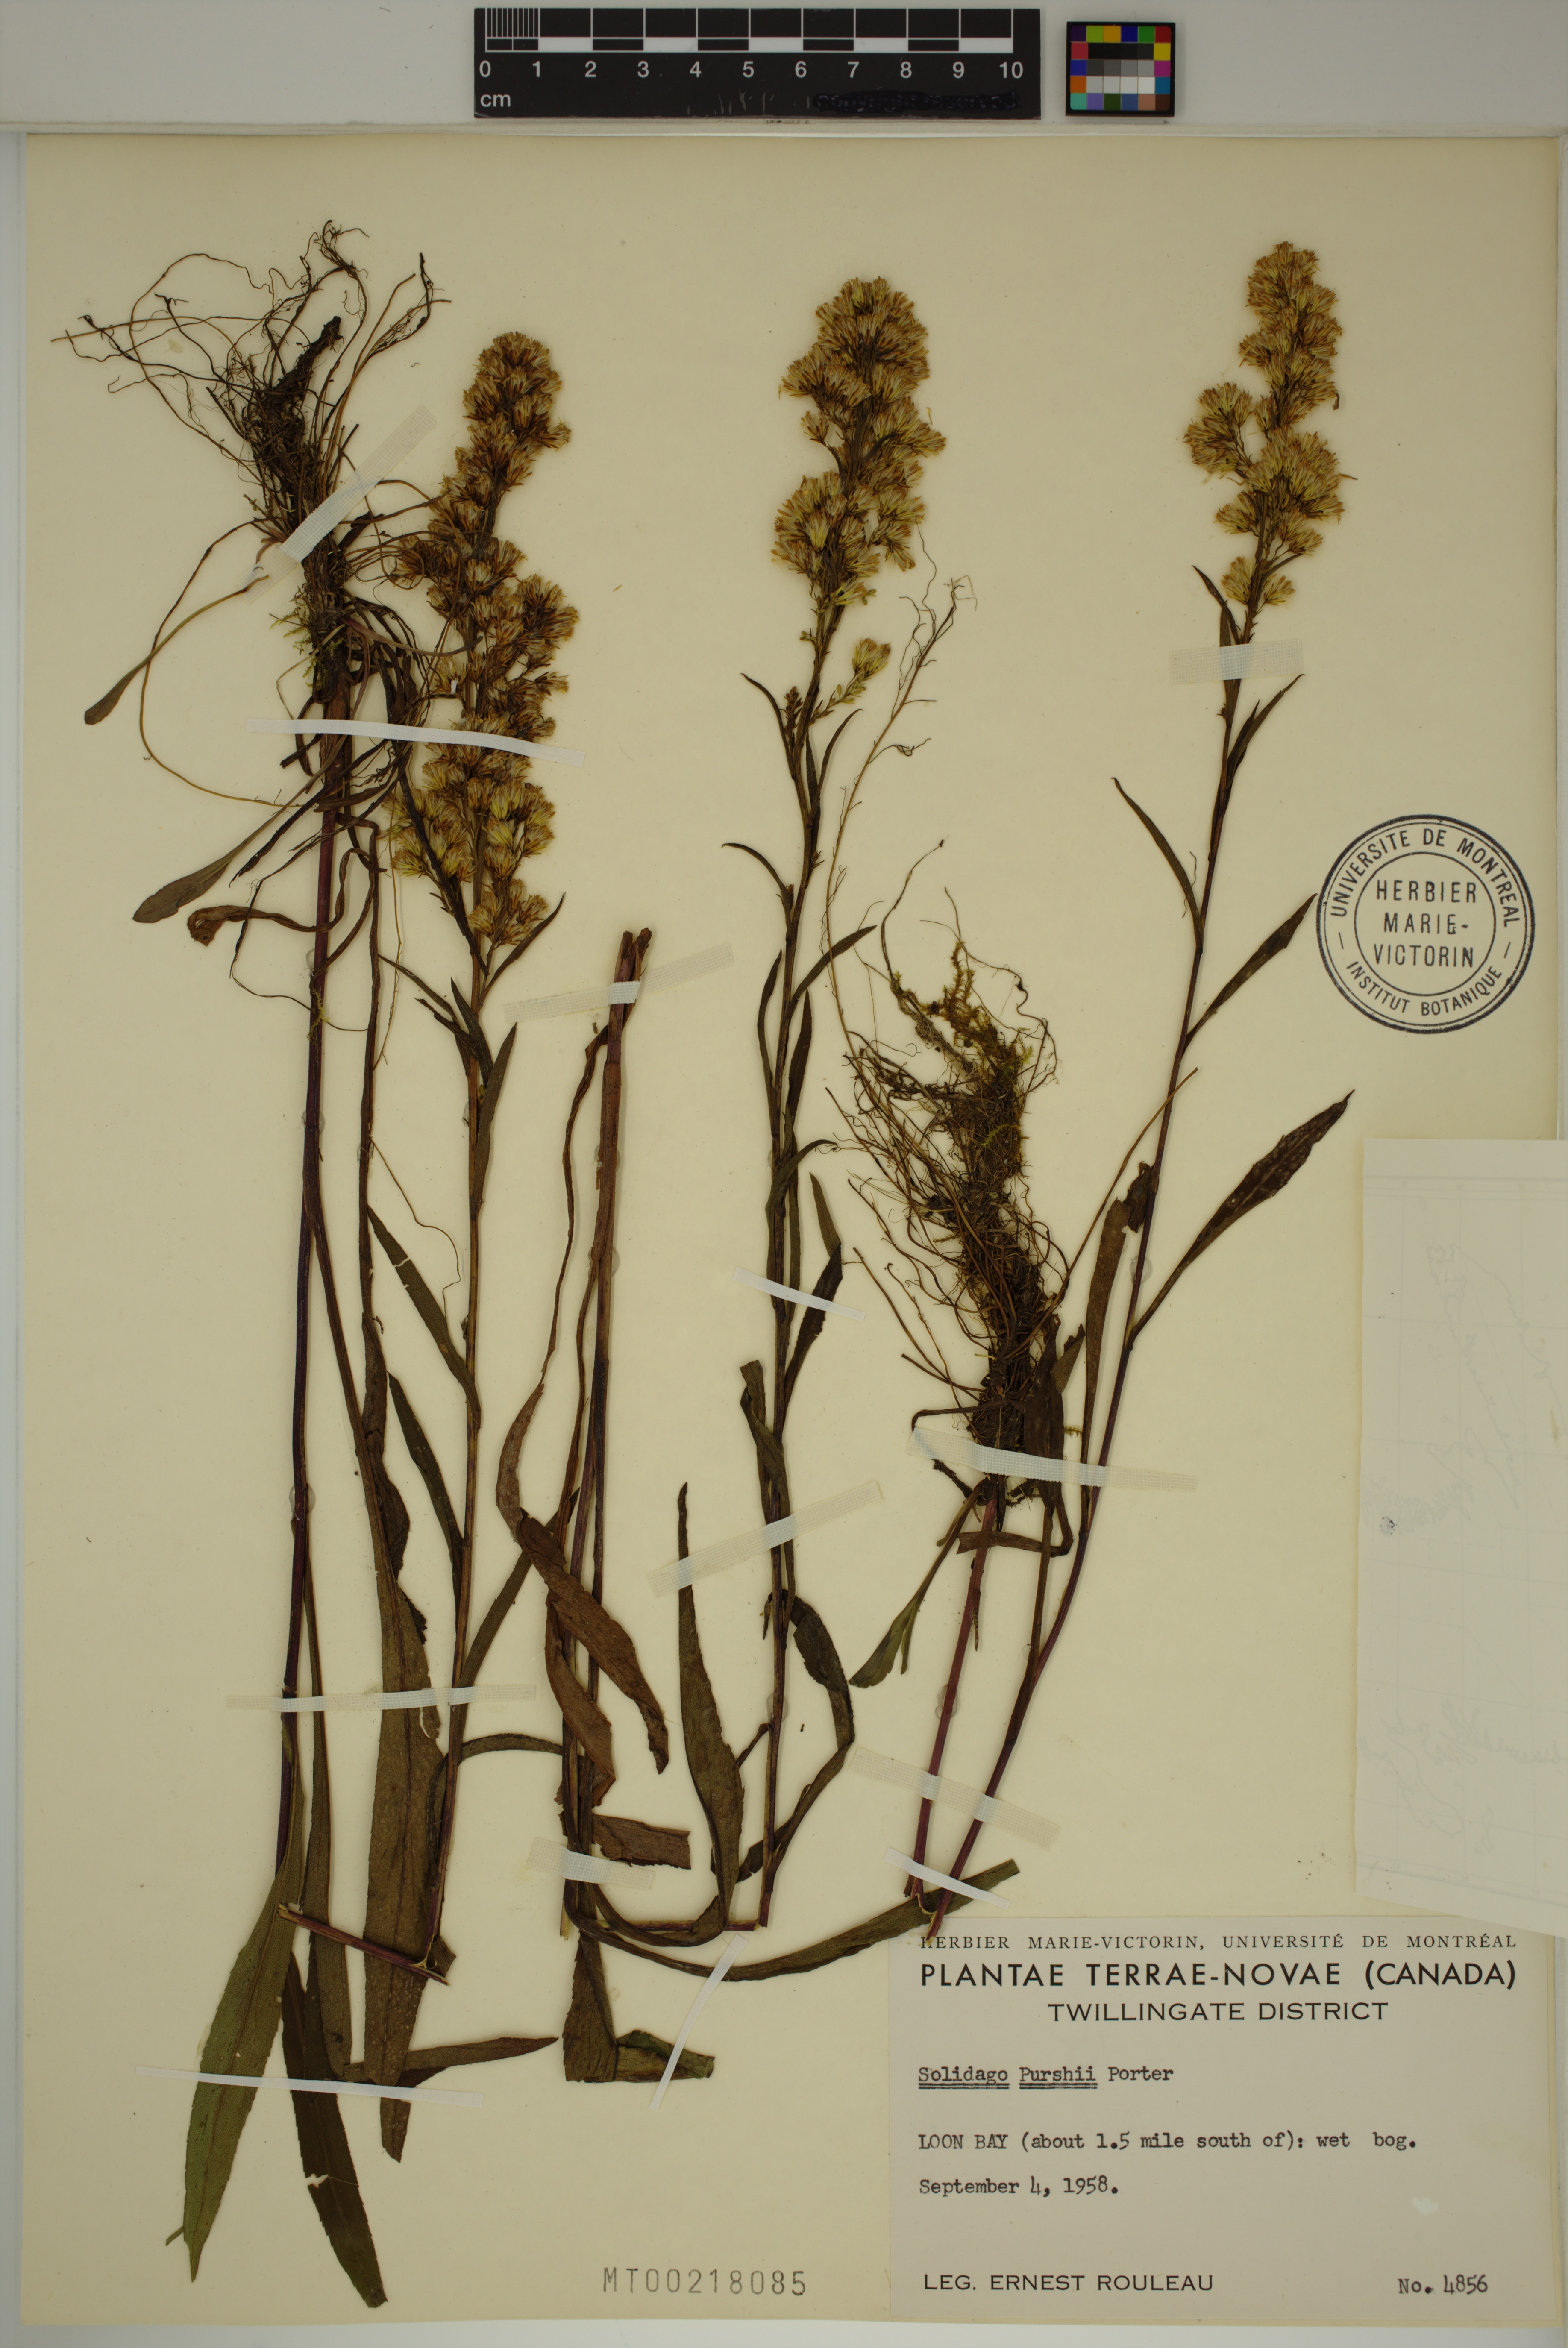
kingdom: Plantae
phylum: Tracheophyta
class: Magnoliopsida
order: Asterales
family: Asteraceae
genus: Solidago
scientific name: Solidago uliginosa
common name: Bog goldenrod
